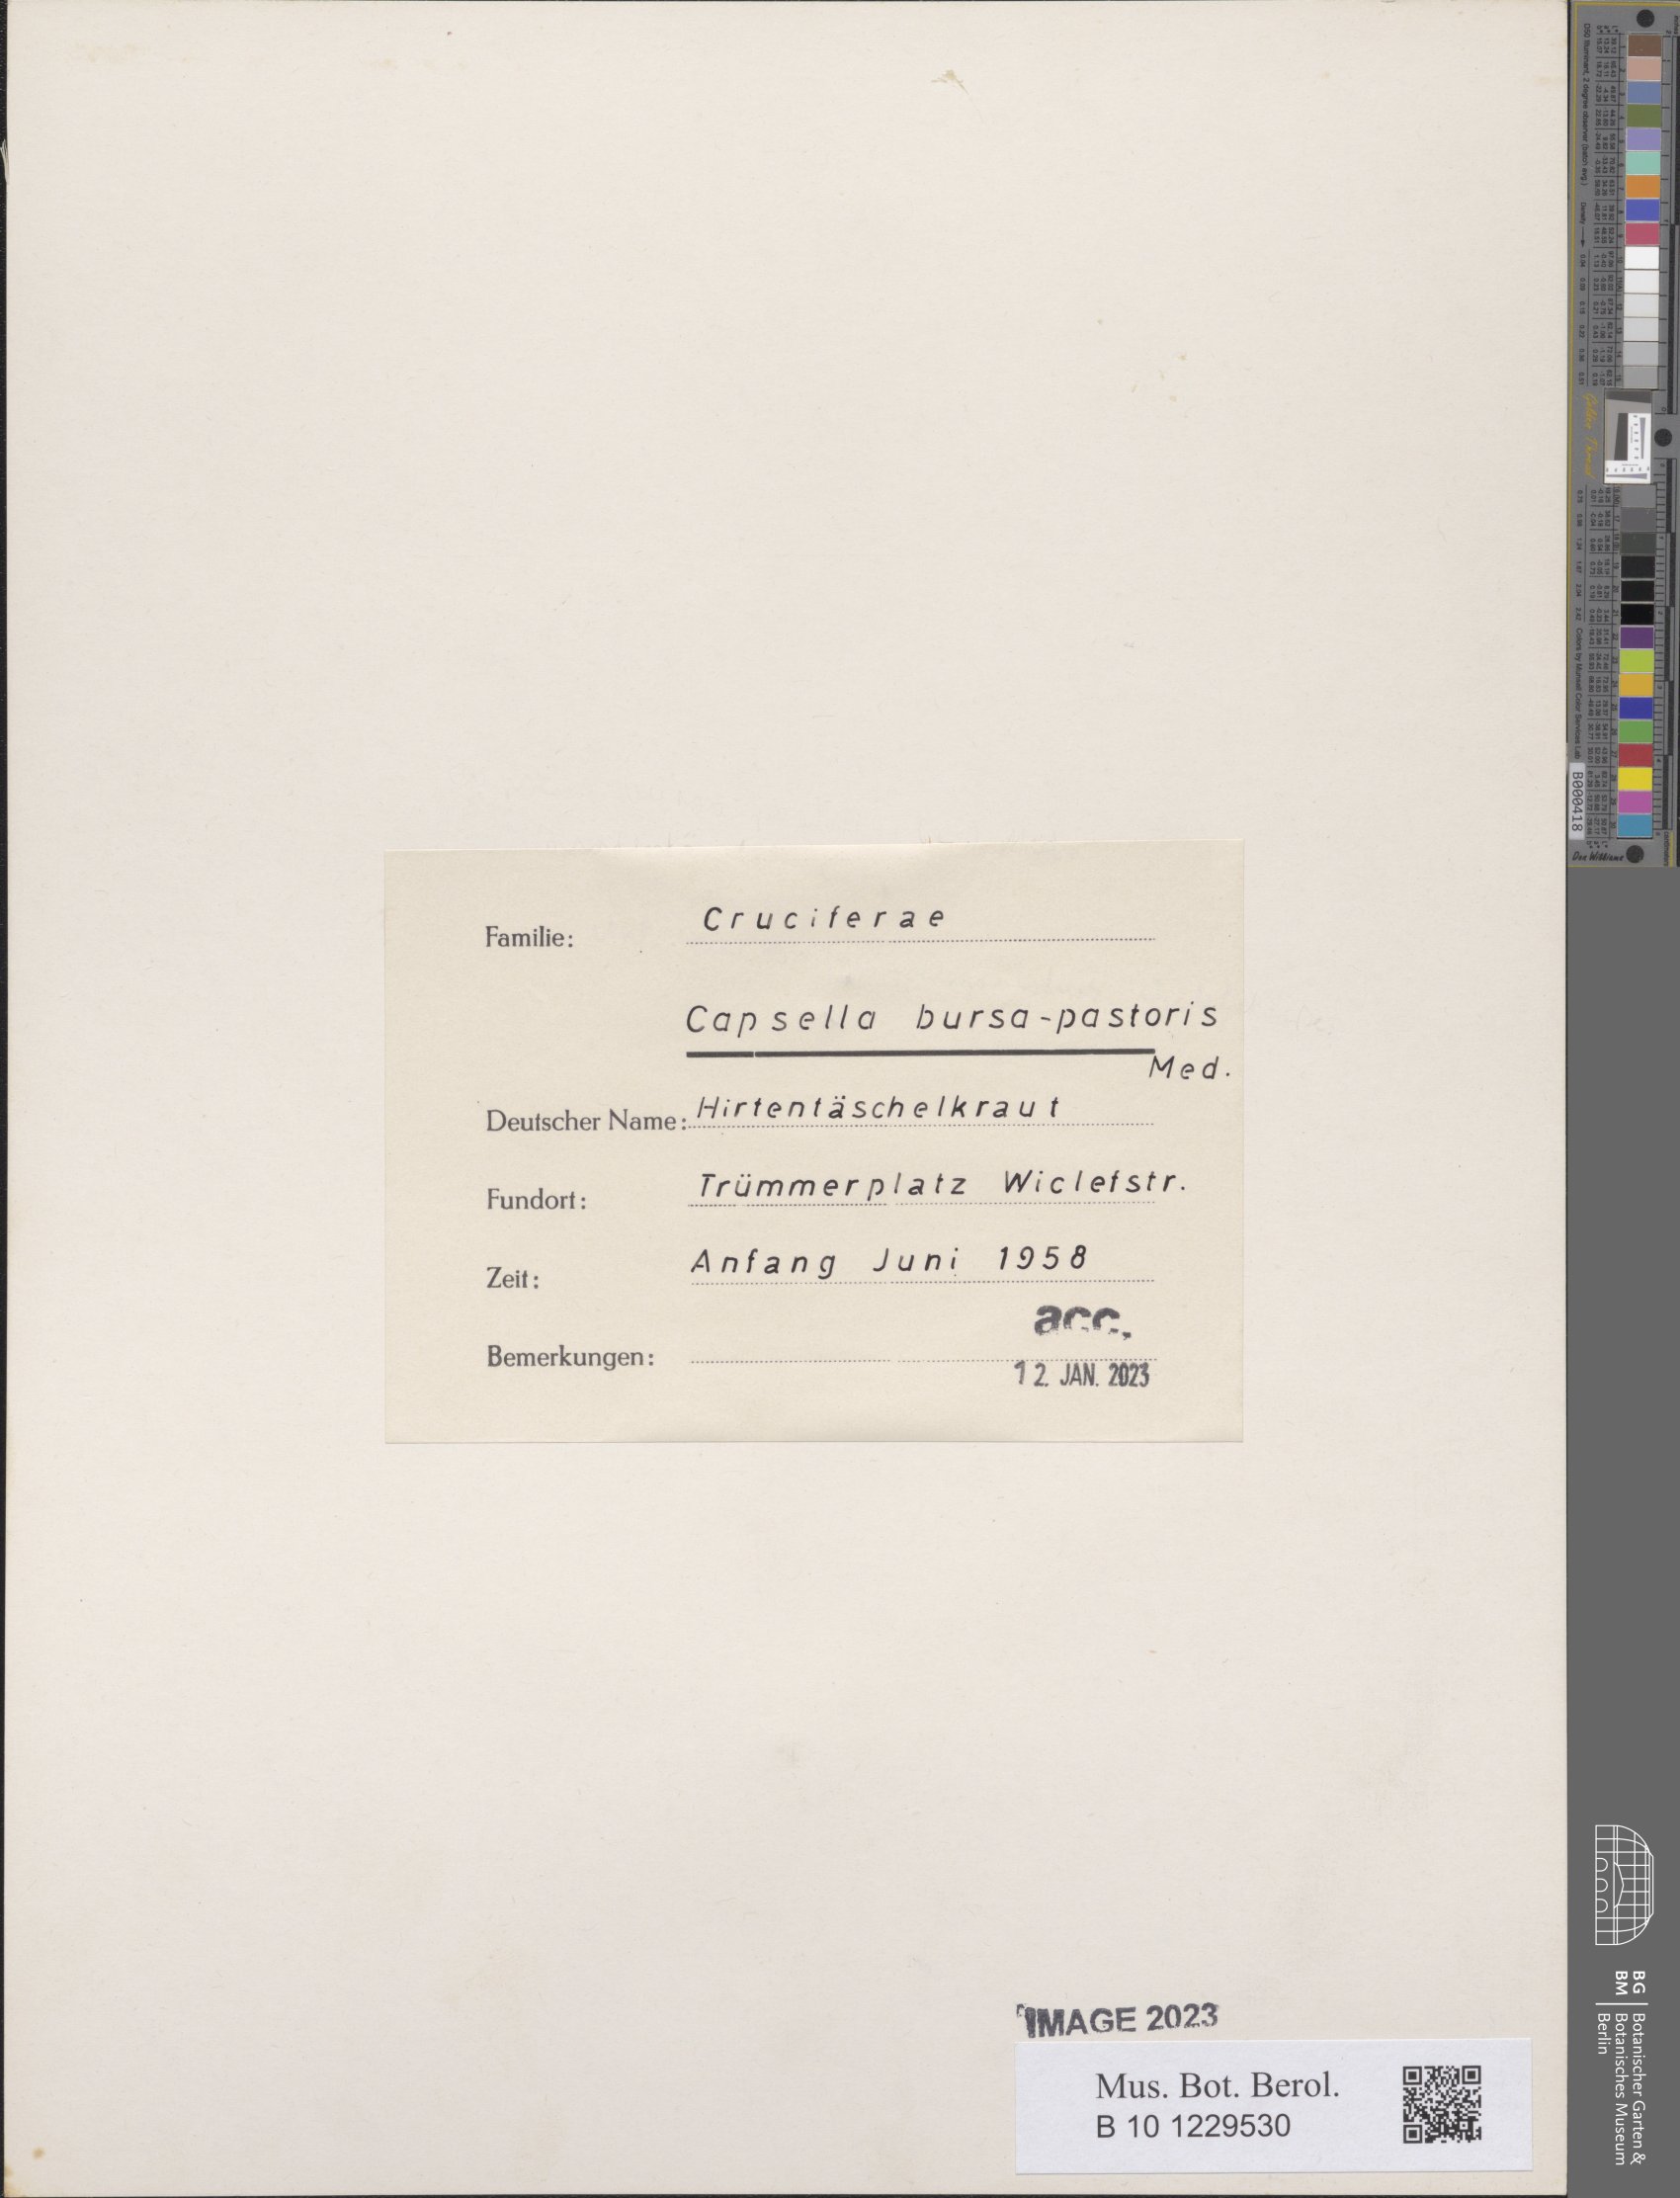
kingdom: Plantae
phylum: Tracheophyta
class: Magnoliopsida
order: Brassicales
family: Brassicaceae
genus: Capsella
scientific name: Capsella bursa-pastoris
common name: Shepherd's purse
